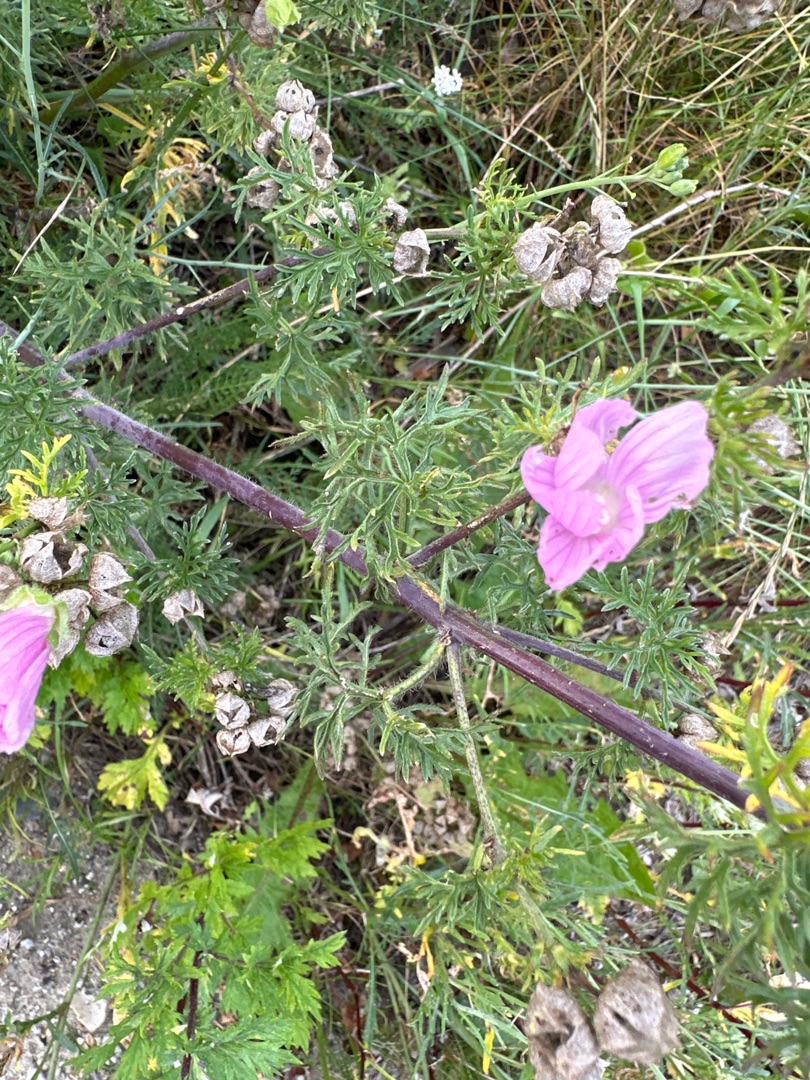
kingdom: Plantae
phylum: Tracheophyta
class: Magnoliopsida
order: Malvales
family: Malvaceae
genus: Malva
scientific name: Malva moschata
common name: Moskus-katost
